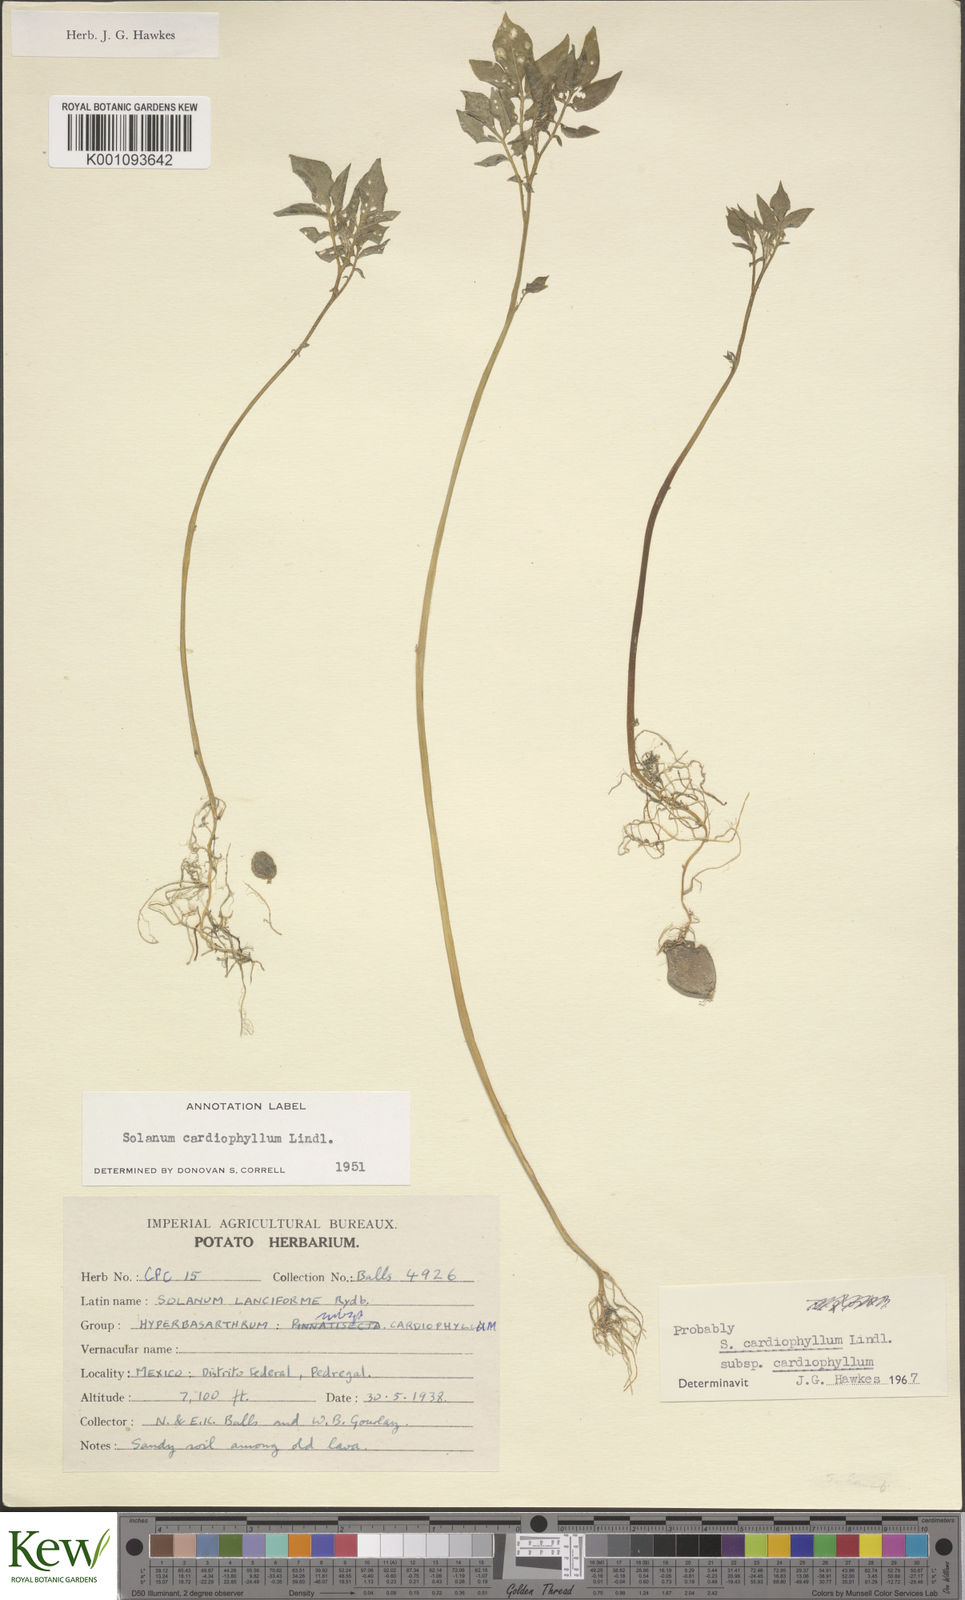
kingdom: Plantae
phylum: Tracheophyta
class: Magnoliopsida
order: Solanales
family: Solanaceae
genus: Solanum
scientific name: Solanum cardiophyllum
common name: Heartleaf horsenettle
